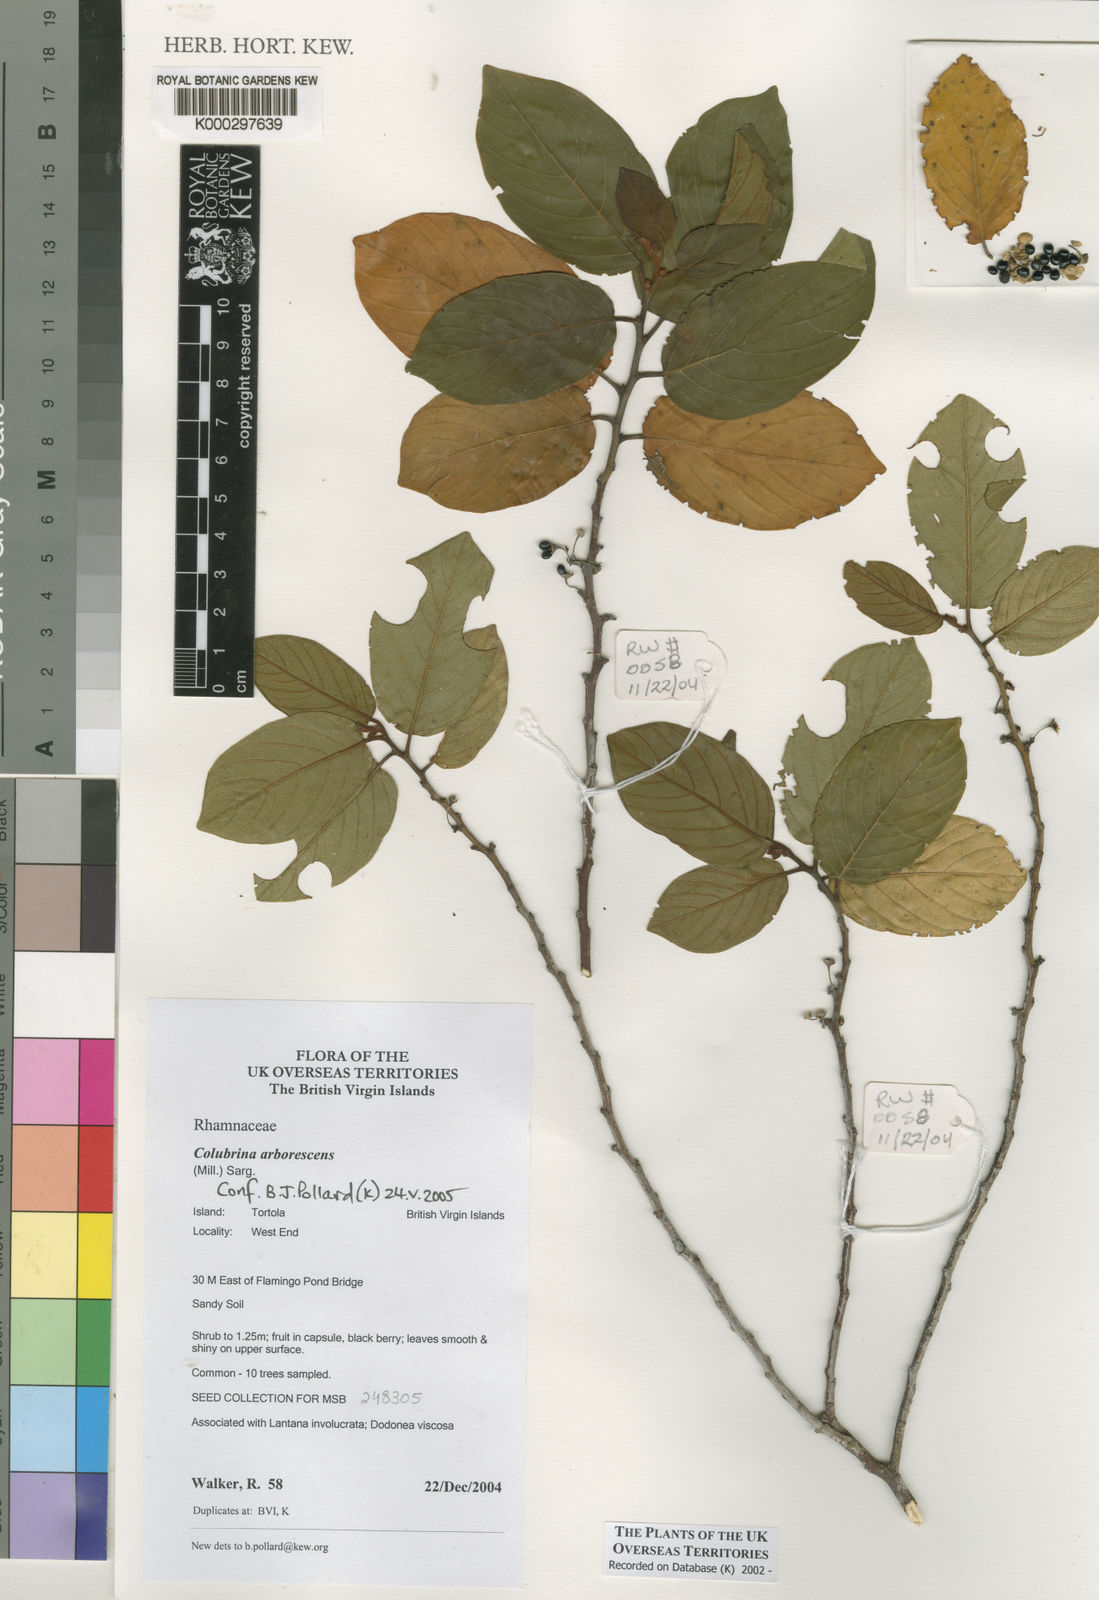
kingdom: Plantae
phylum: Tracheophyta
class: Magnoliopsida
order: Rosales
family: Rhamnaceae
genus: Colubrina
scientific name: Colubrina arborescens
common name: Wild coffee
